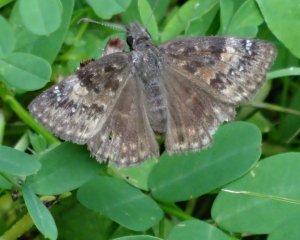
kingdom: Animalia
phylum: Arthropoda
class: Insecta
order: Lepidoptera
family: Hesperiidae
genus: Gesta
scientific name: Gesta
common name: Wild Indigo Duskywing
